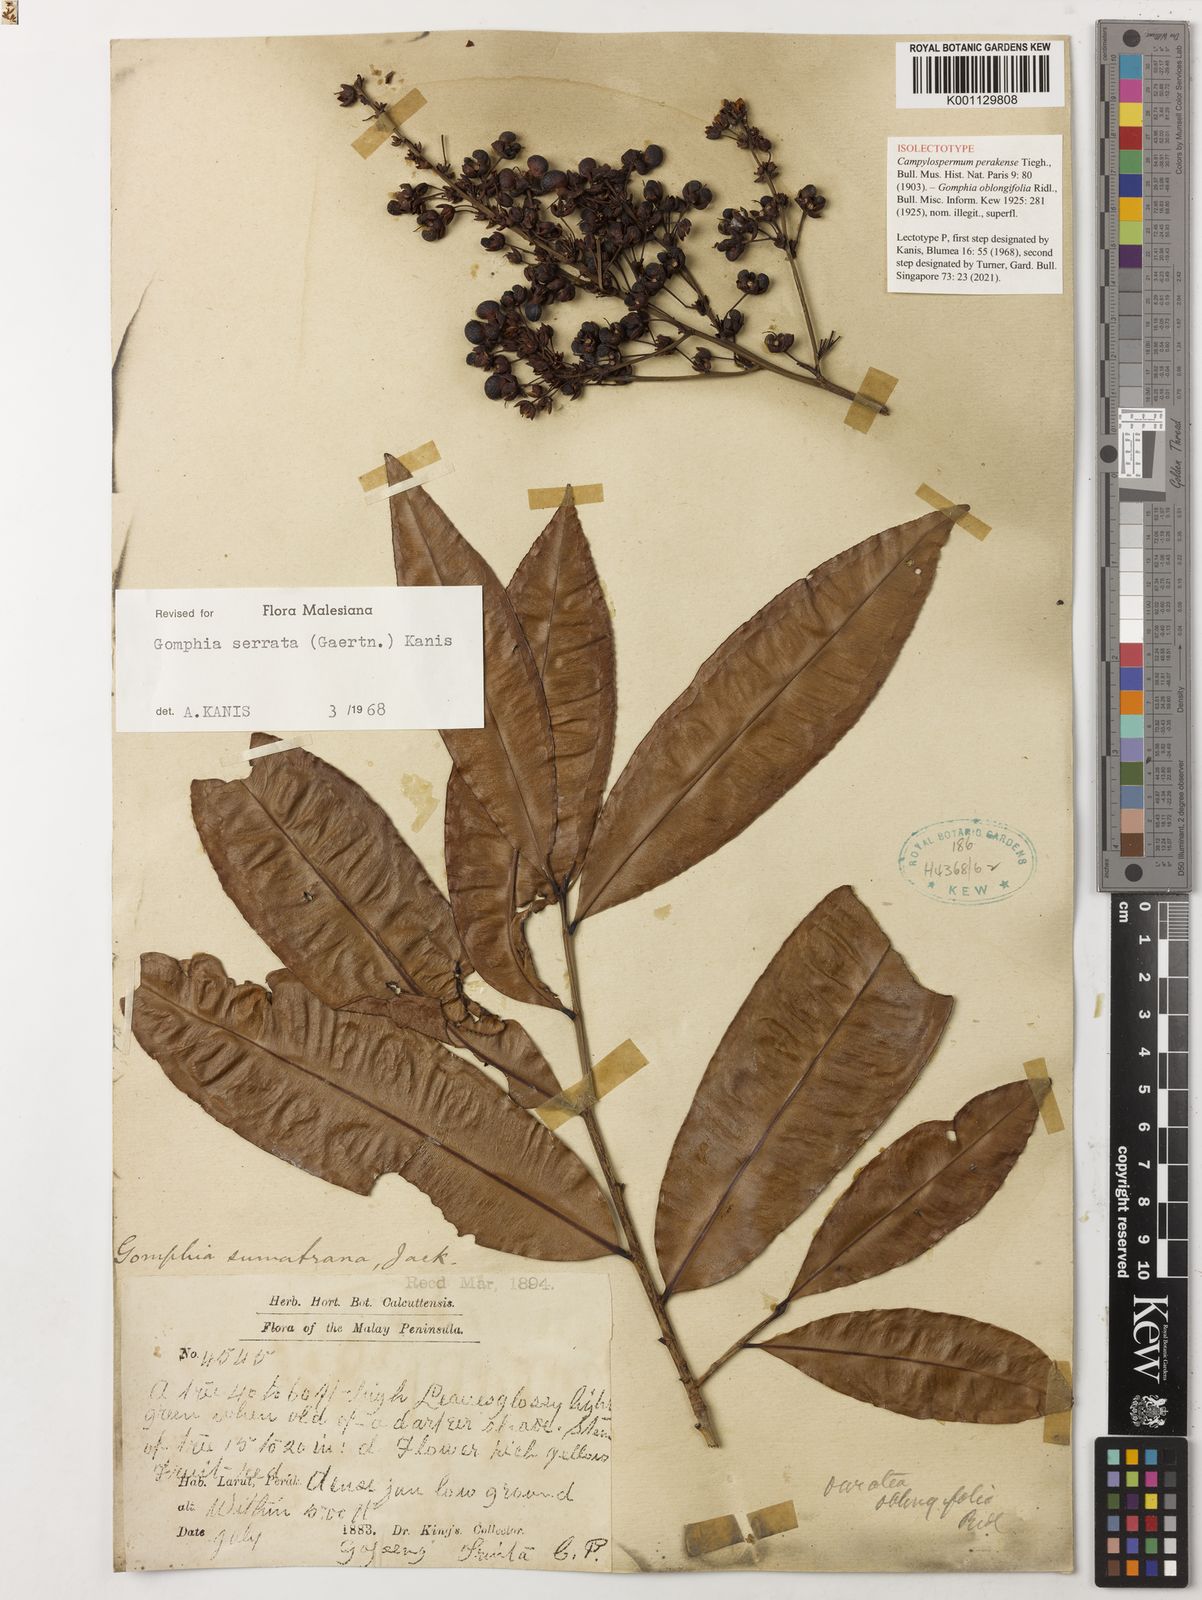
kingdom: Plantae
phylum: Tracheophyta
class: Magnoliopsida
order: Malpighiales
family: Ochnaceae
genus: Gomphia
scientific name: Gomphia serrata
